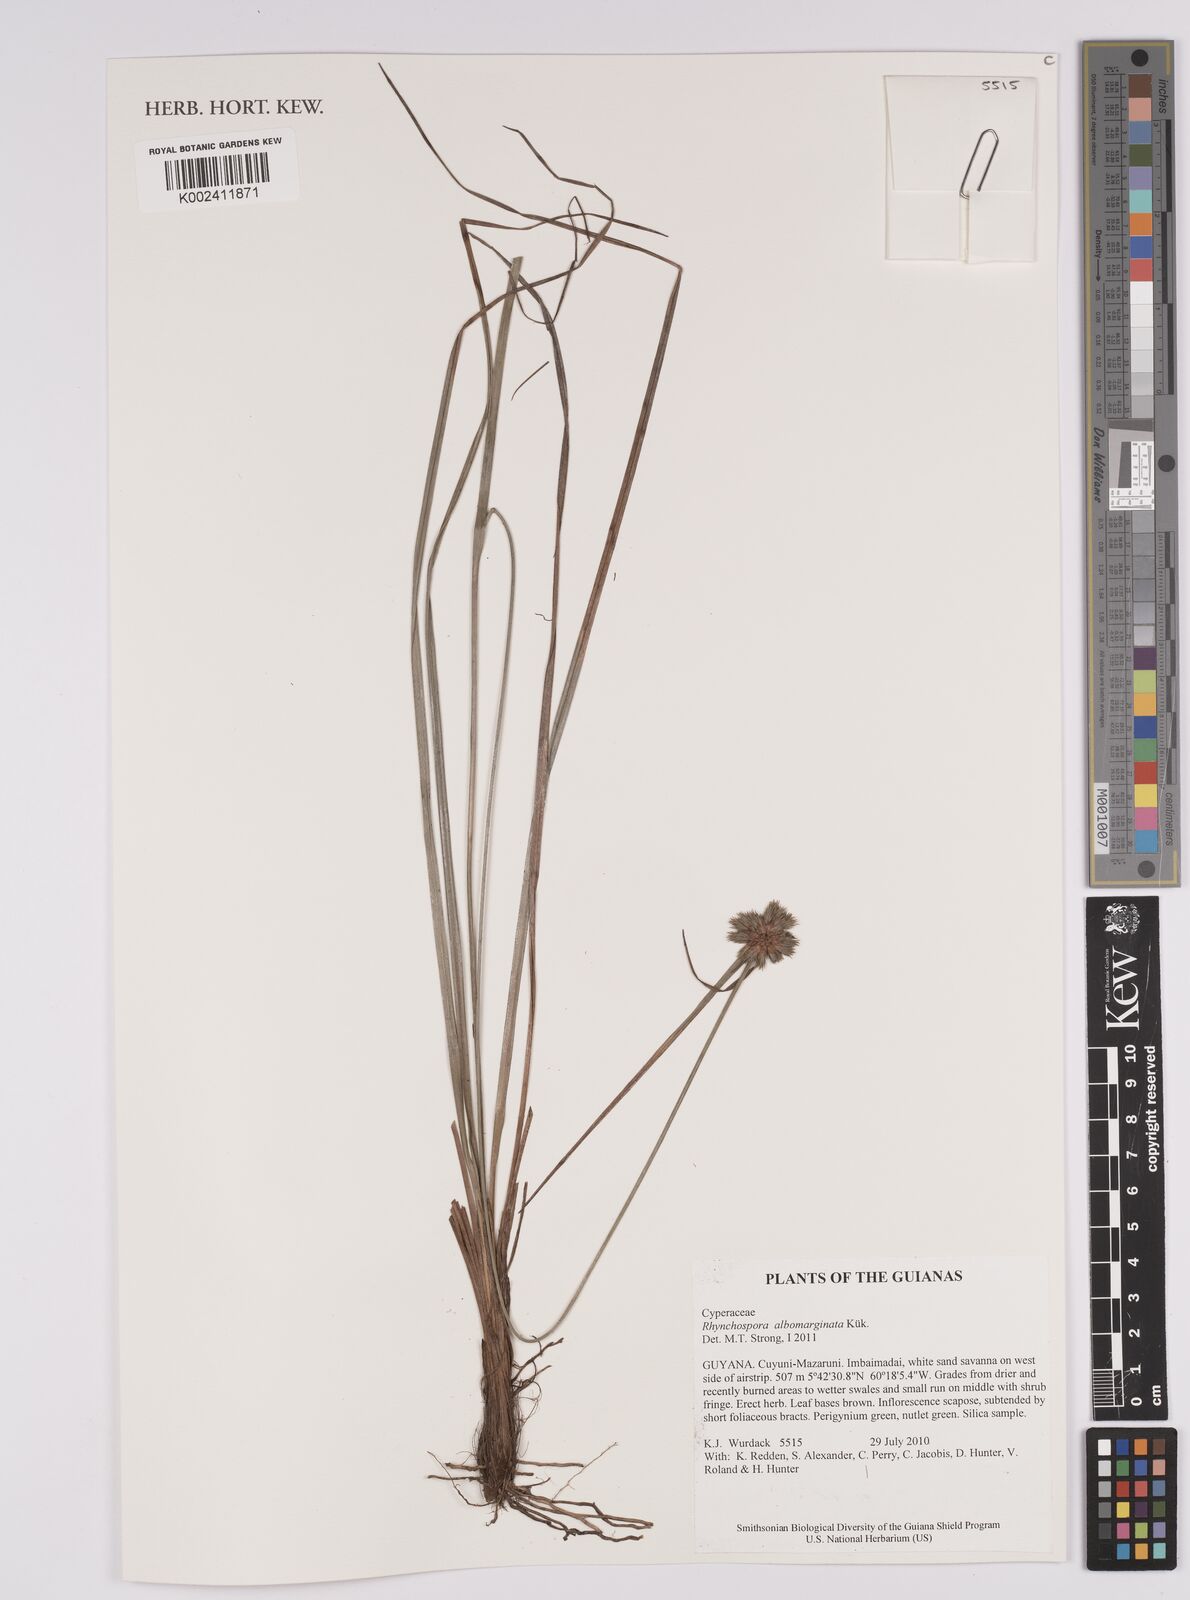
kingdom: Plantae
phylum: Tracheophyta
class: Liliopsida
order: Poales
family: Cyperaceae
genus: Rhynchospora
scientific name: Rhynchospora albomarginata
